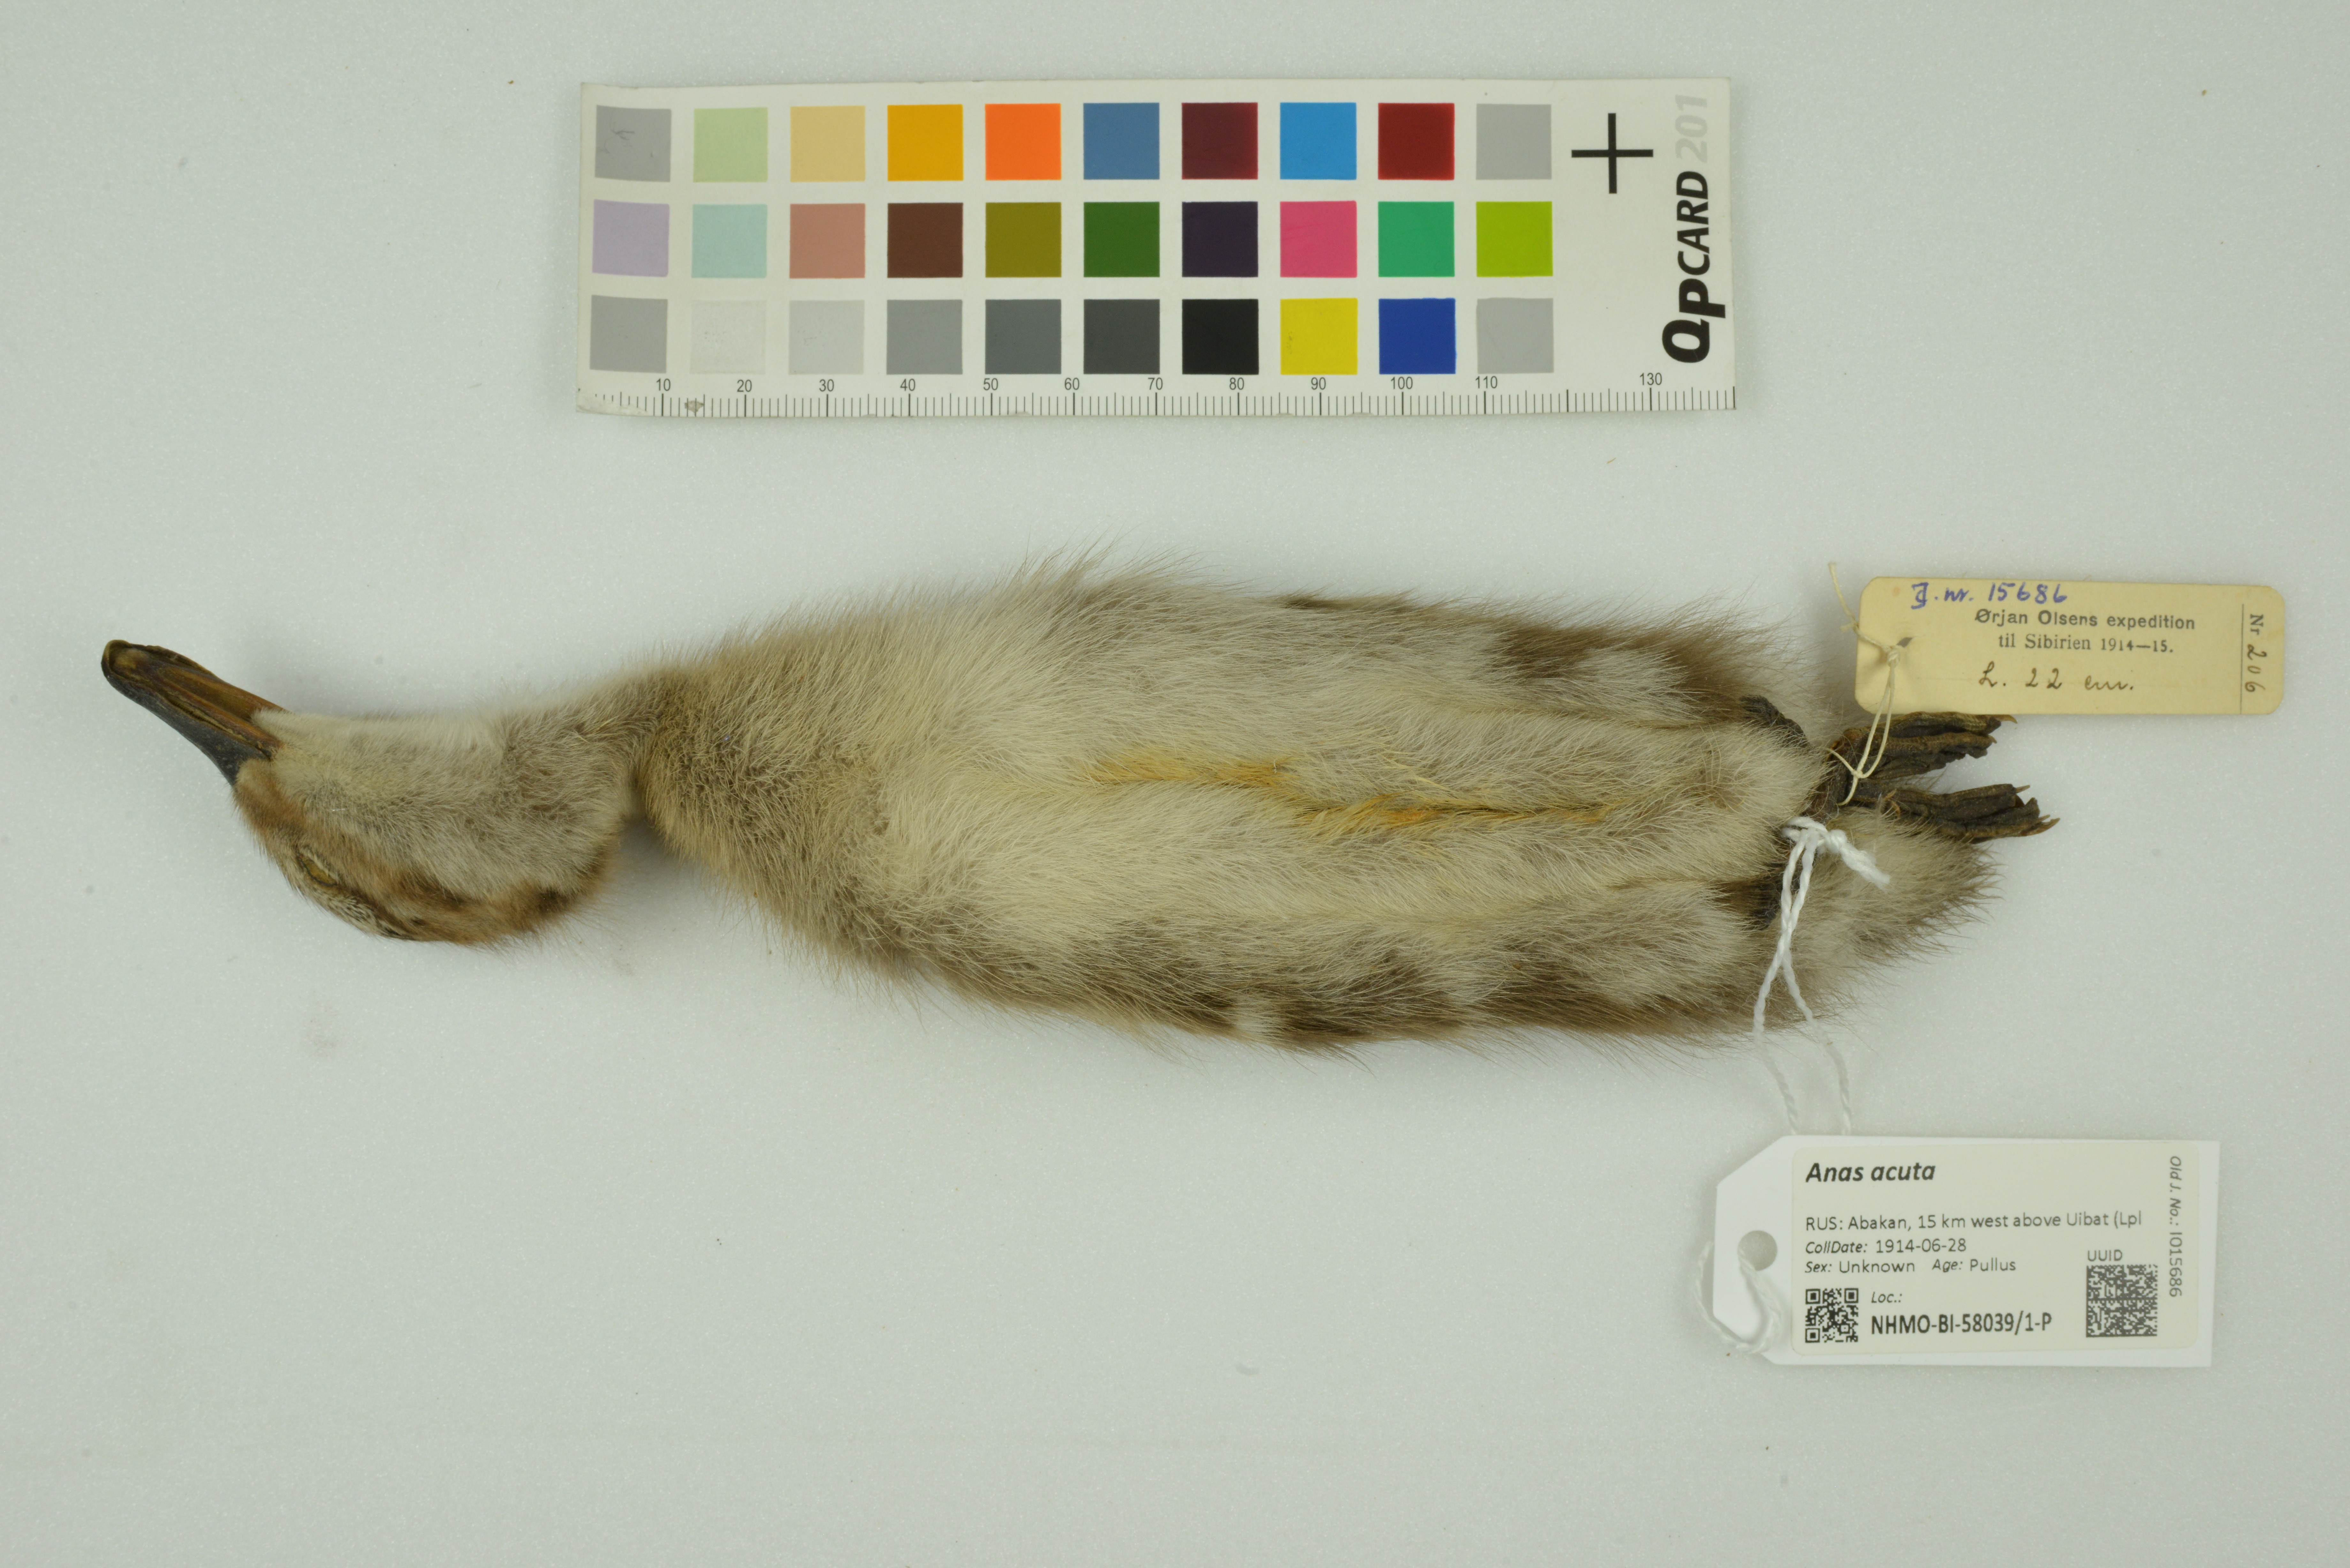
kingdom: Animalia
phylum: Chordata
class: Aves
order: Anseriformes
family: Anatidae
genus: Anas
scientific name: Anas acuta
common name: Northern pintail
